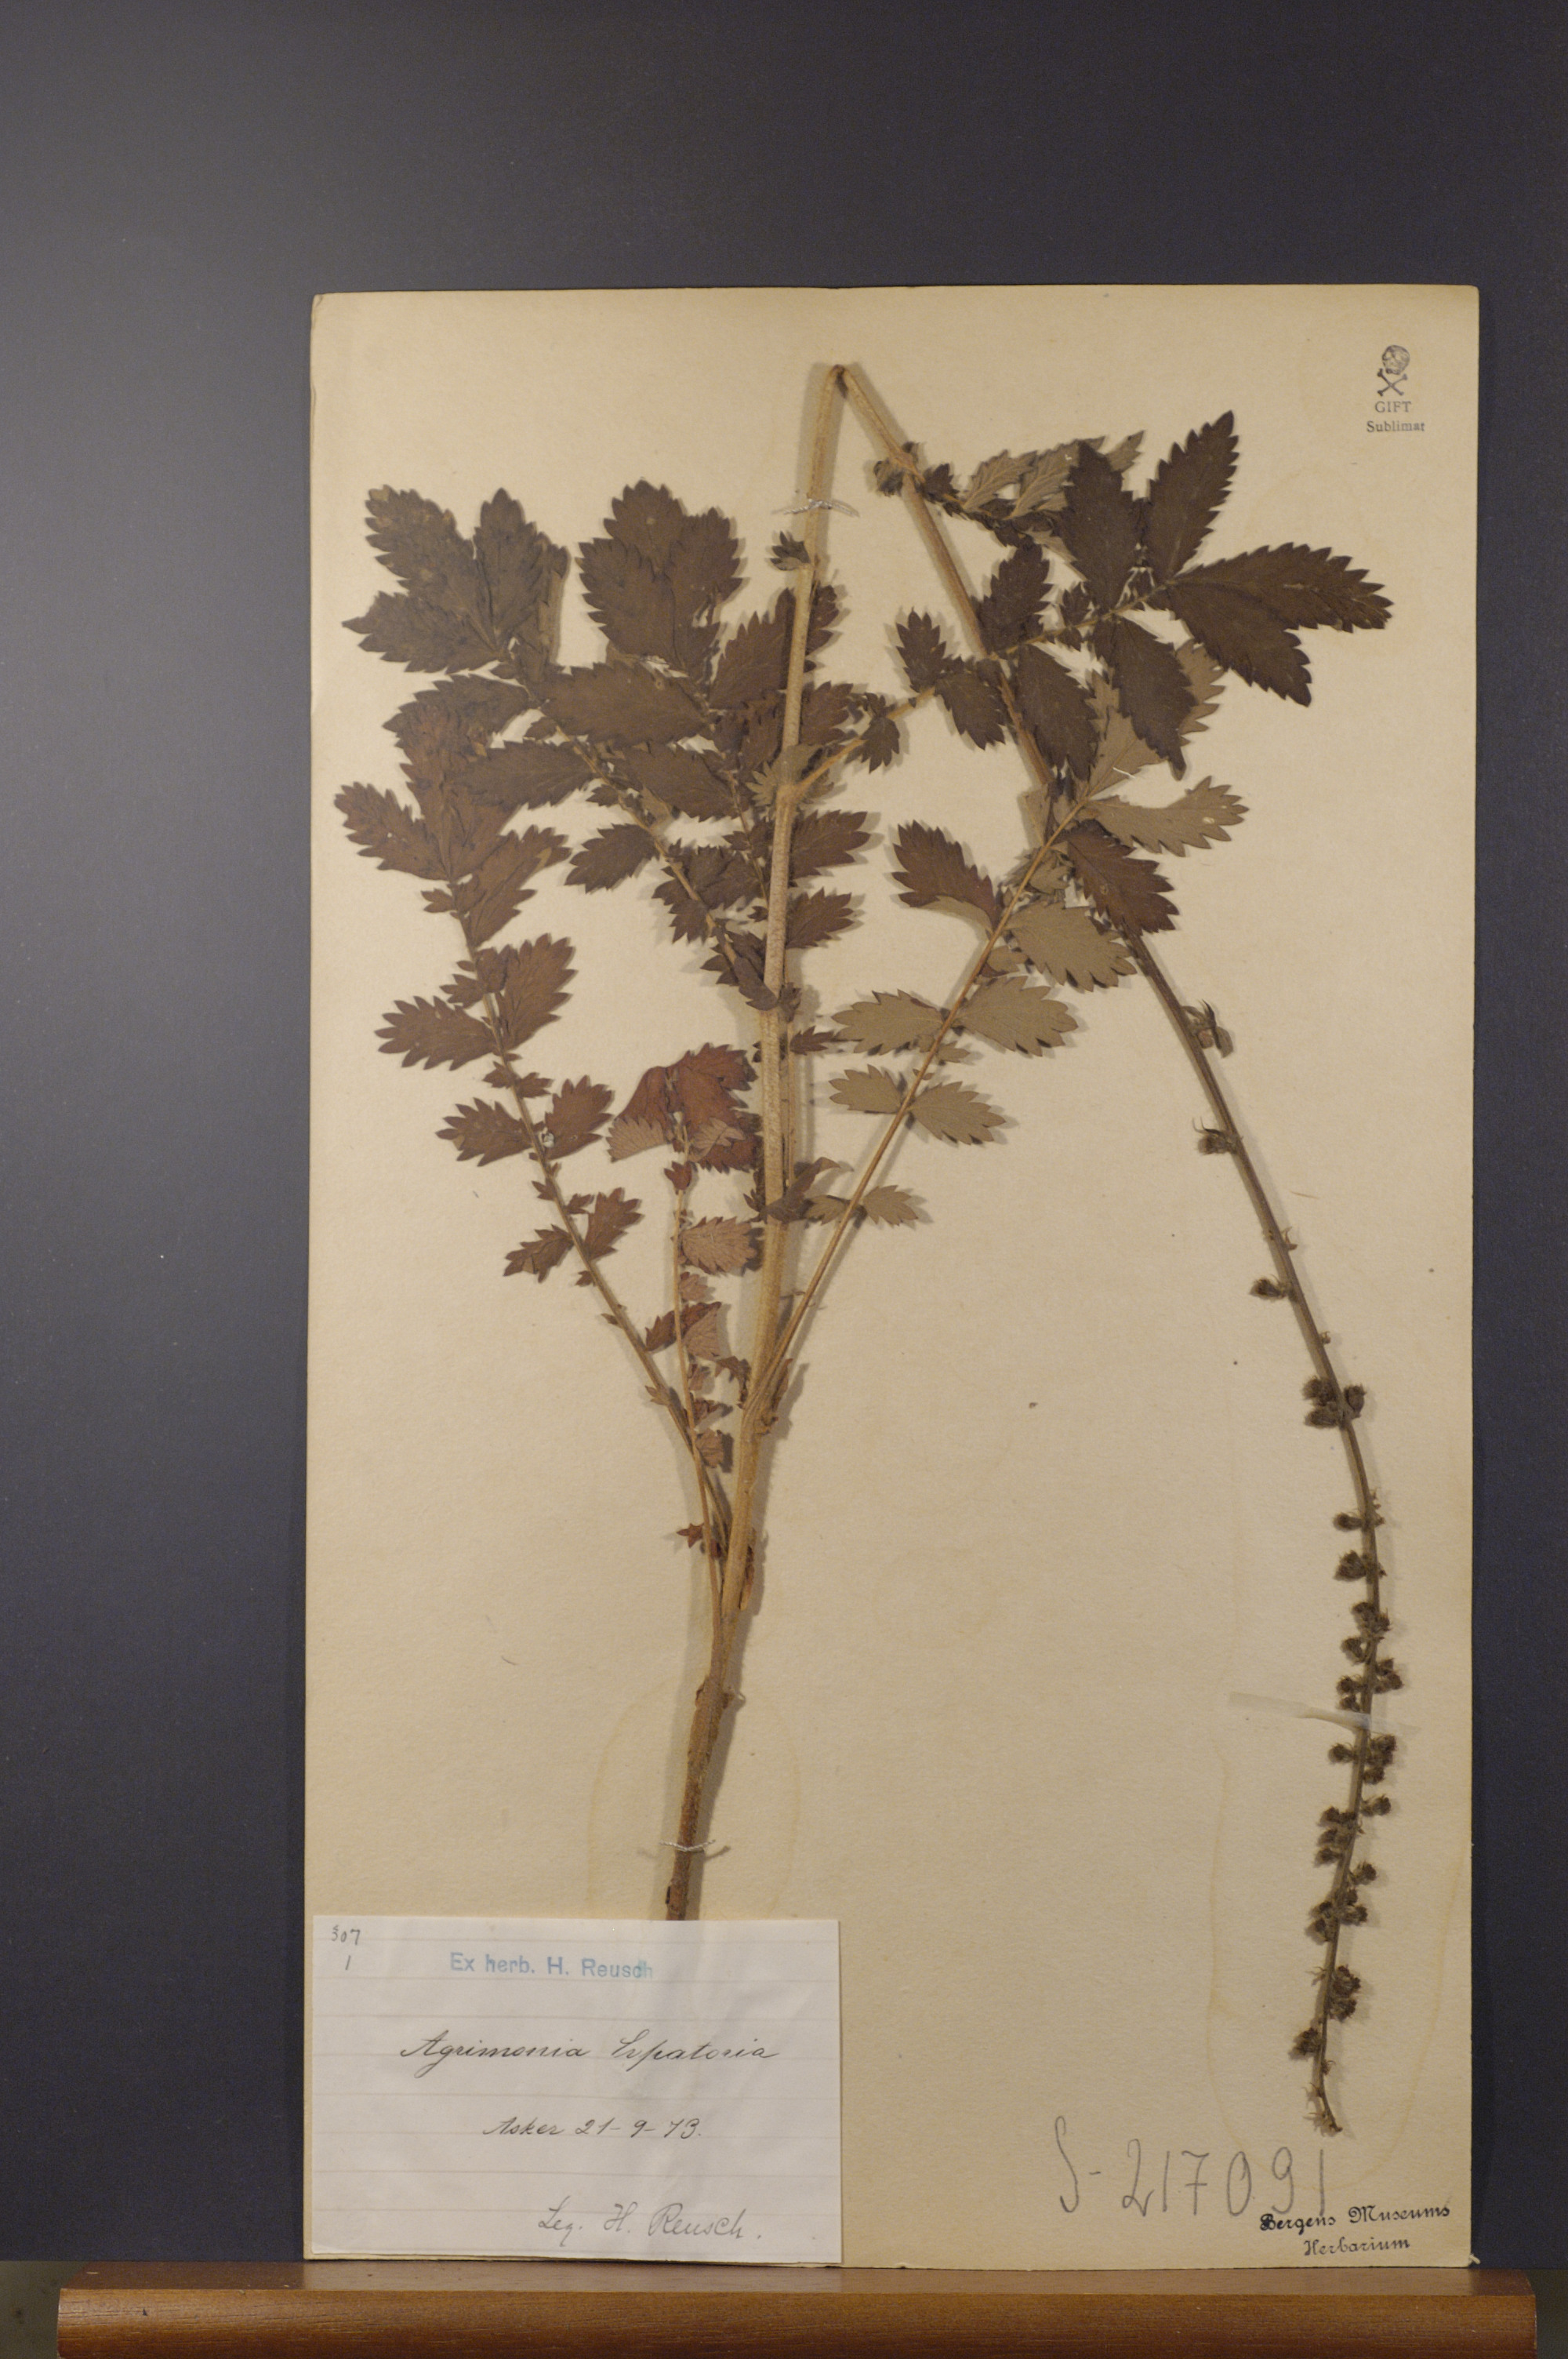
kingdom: Plantae
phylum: Tracheophyta
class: Magnoliopsida
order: Rosales
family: Rosaceae
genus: Agrimonia
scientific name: Agrimonia eupatoria
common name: Agrimony
